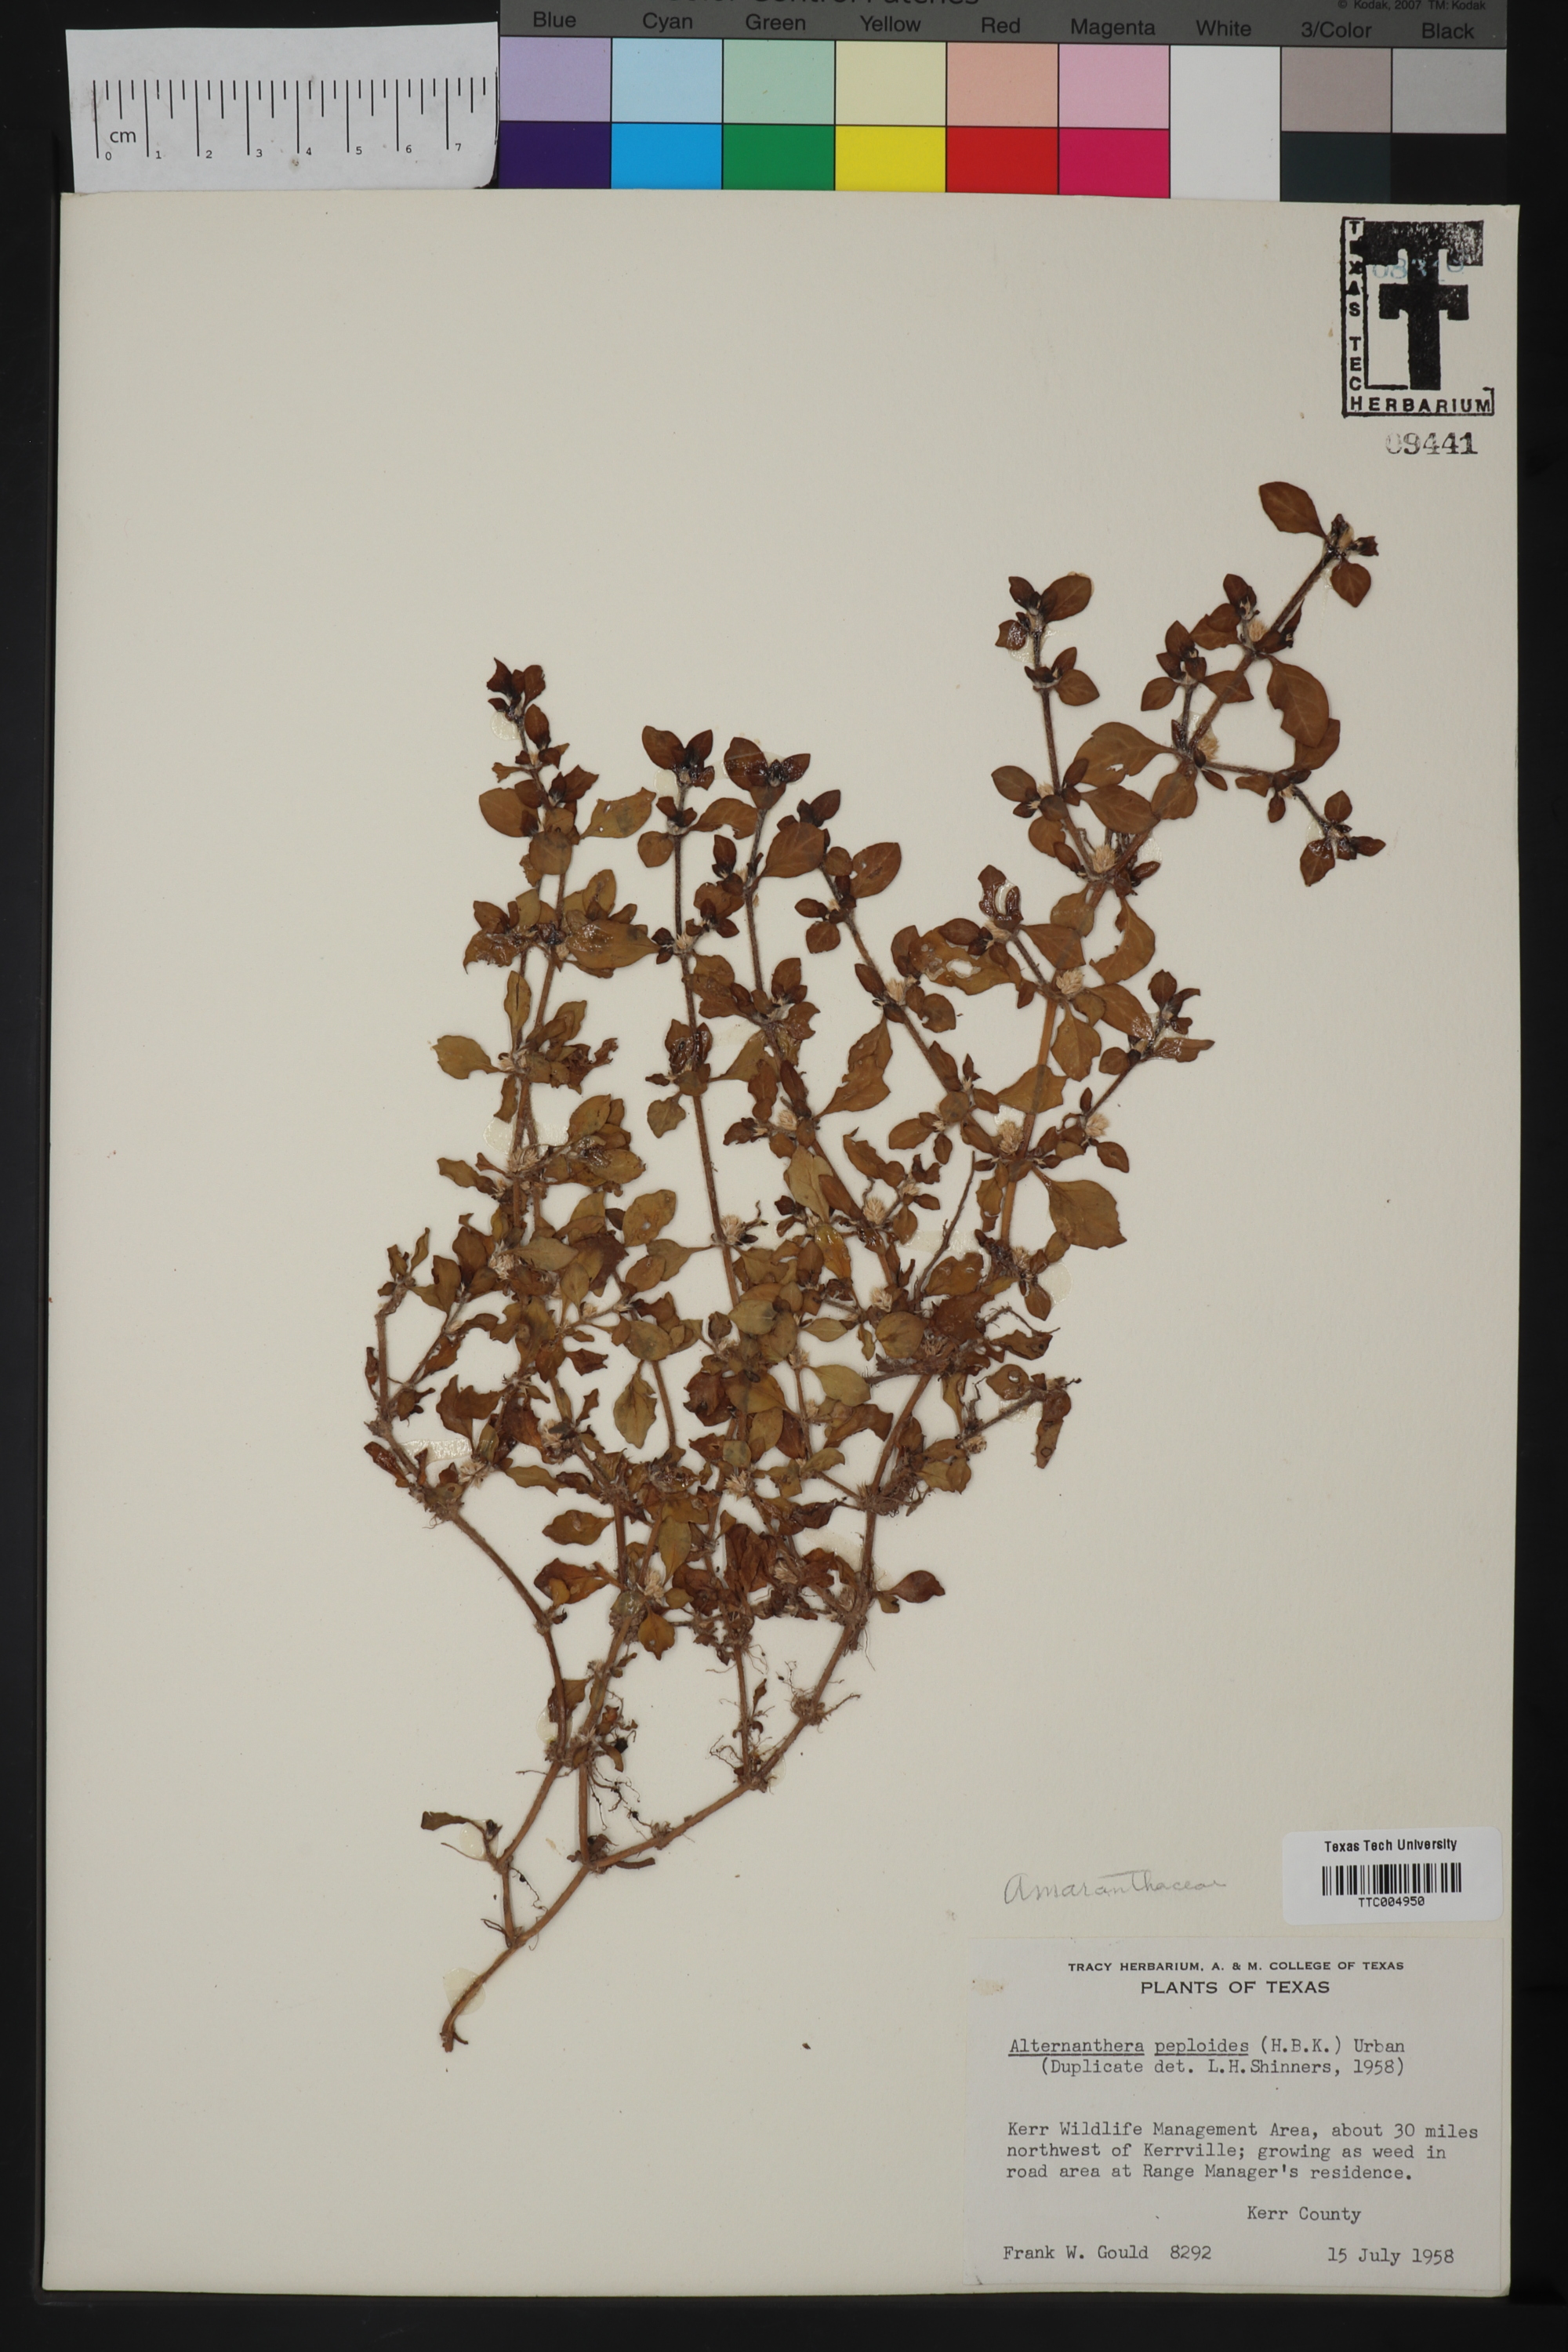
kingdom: Plantae
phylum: Tracheophyta
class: Magnoliopsida
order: Caryophyllales
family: Amaranthaceae
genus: Alternanthera
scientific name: Alternanthera caracasana
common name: Washerwoman
